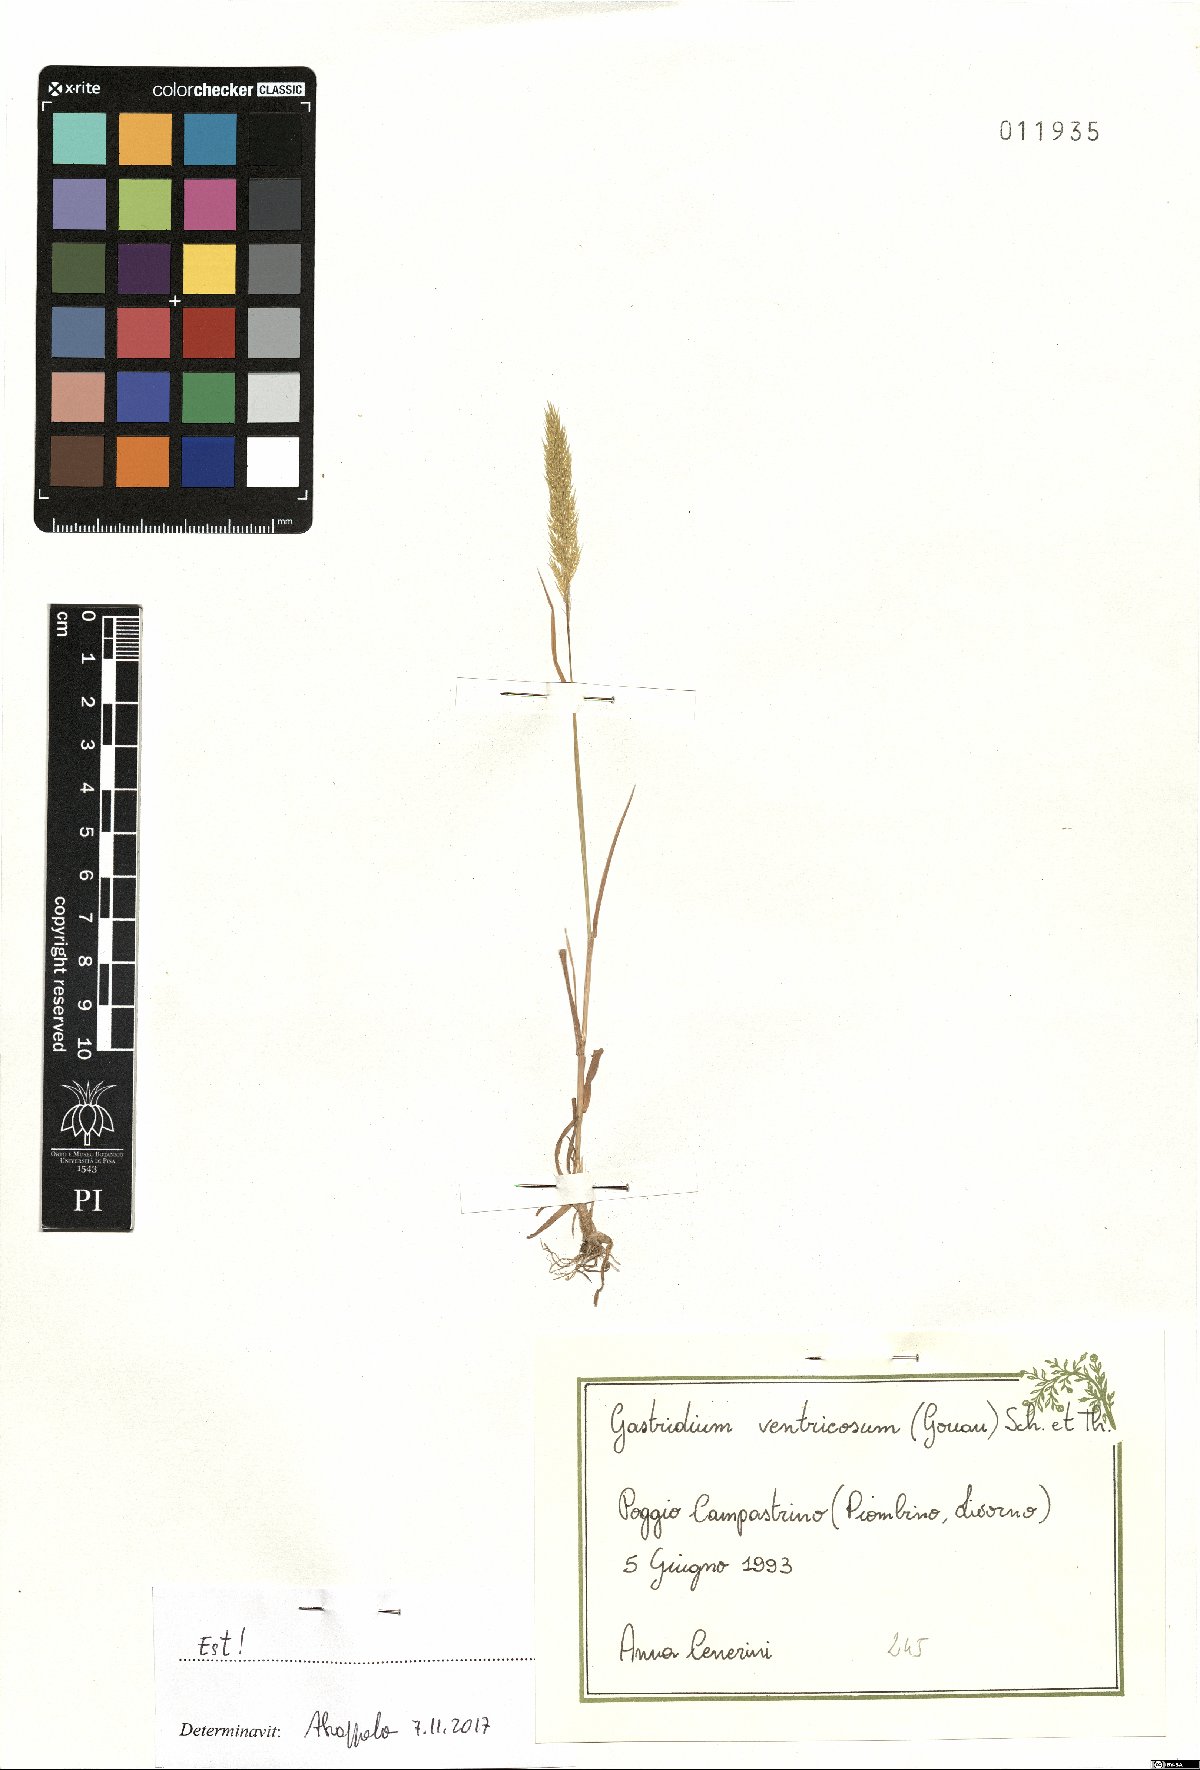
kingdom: Plantae
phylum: Tracheophyta
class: Liliopsida
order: Poales
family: Poaceae
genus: Gastridium
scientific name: Gastridium ventricosum
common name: Nit-grass
